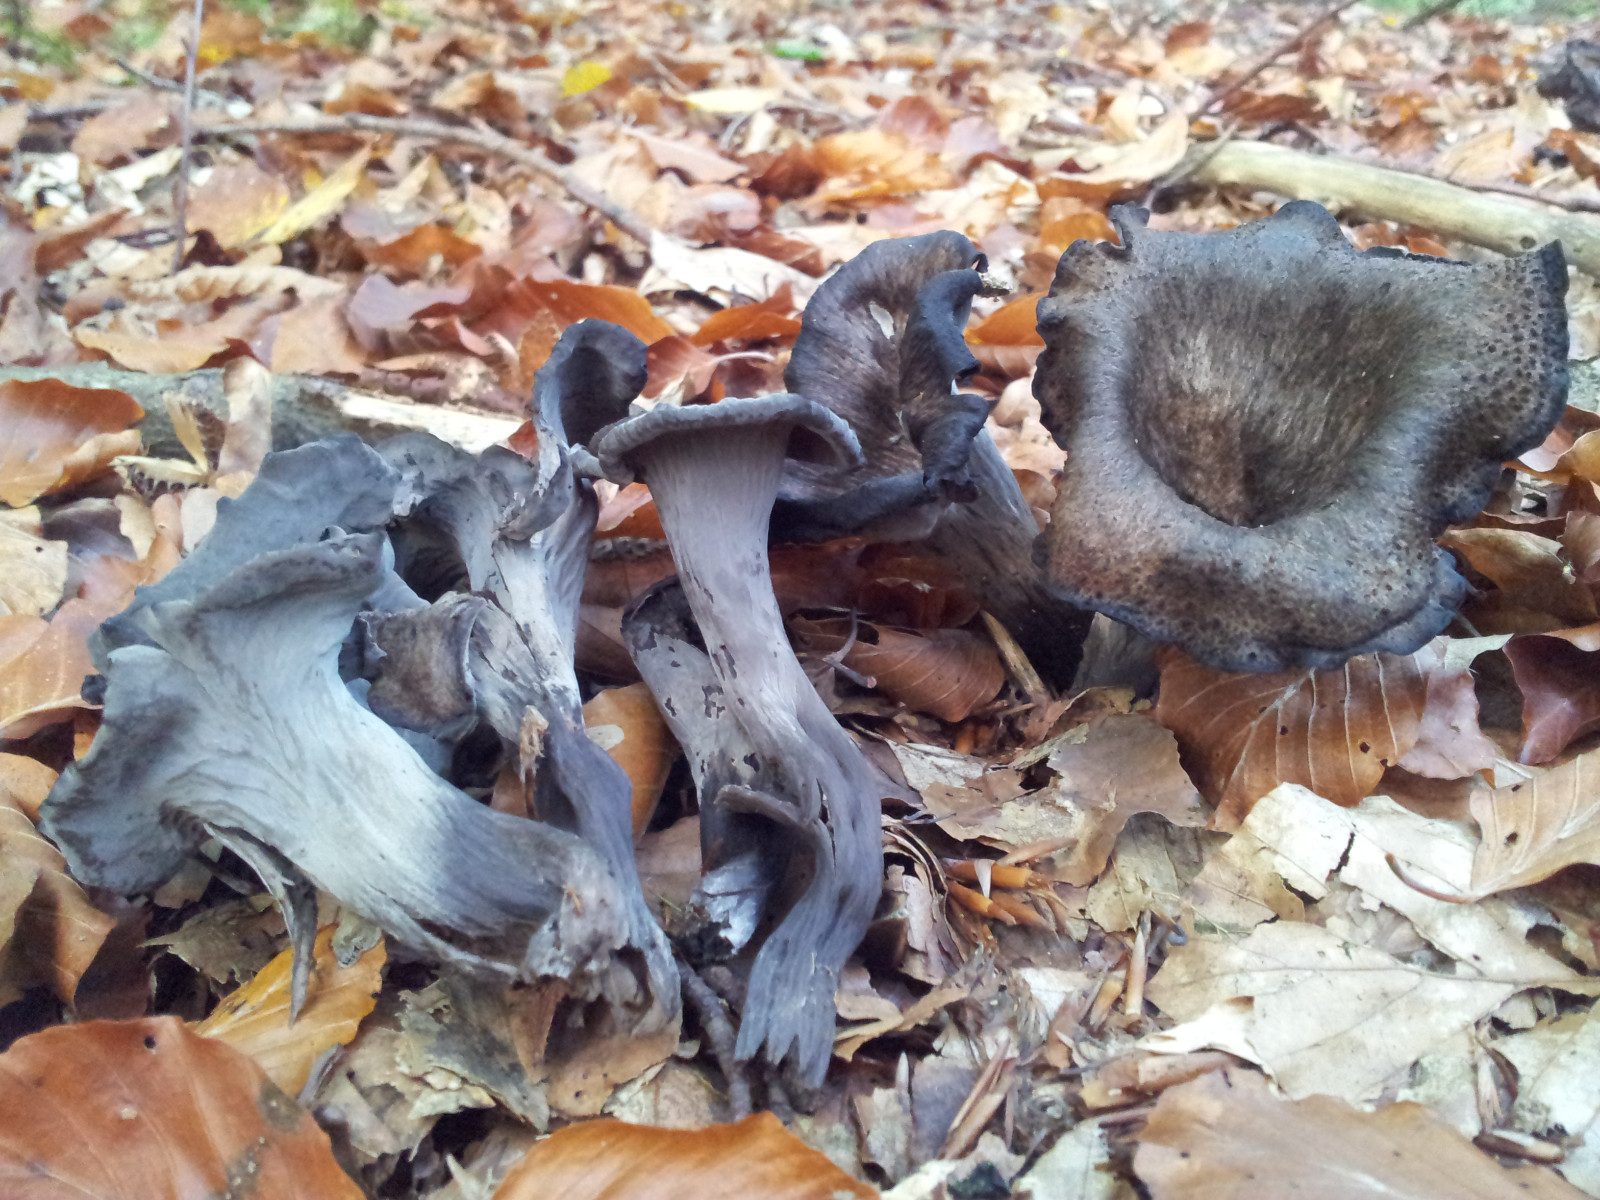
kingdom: Fungi
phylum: Basidiomycota
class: Agaricomycetes
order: Cantharellales
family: Hydnaceae
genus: Craterellus
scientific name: Craterellus cornucopioides
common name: trompetsvamp
